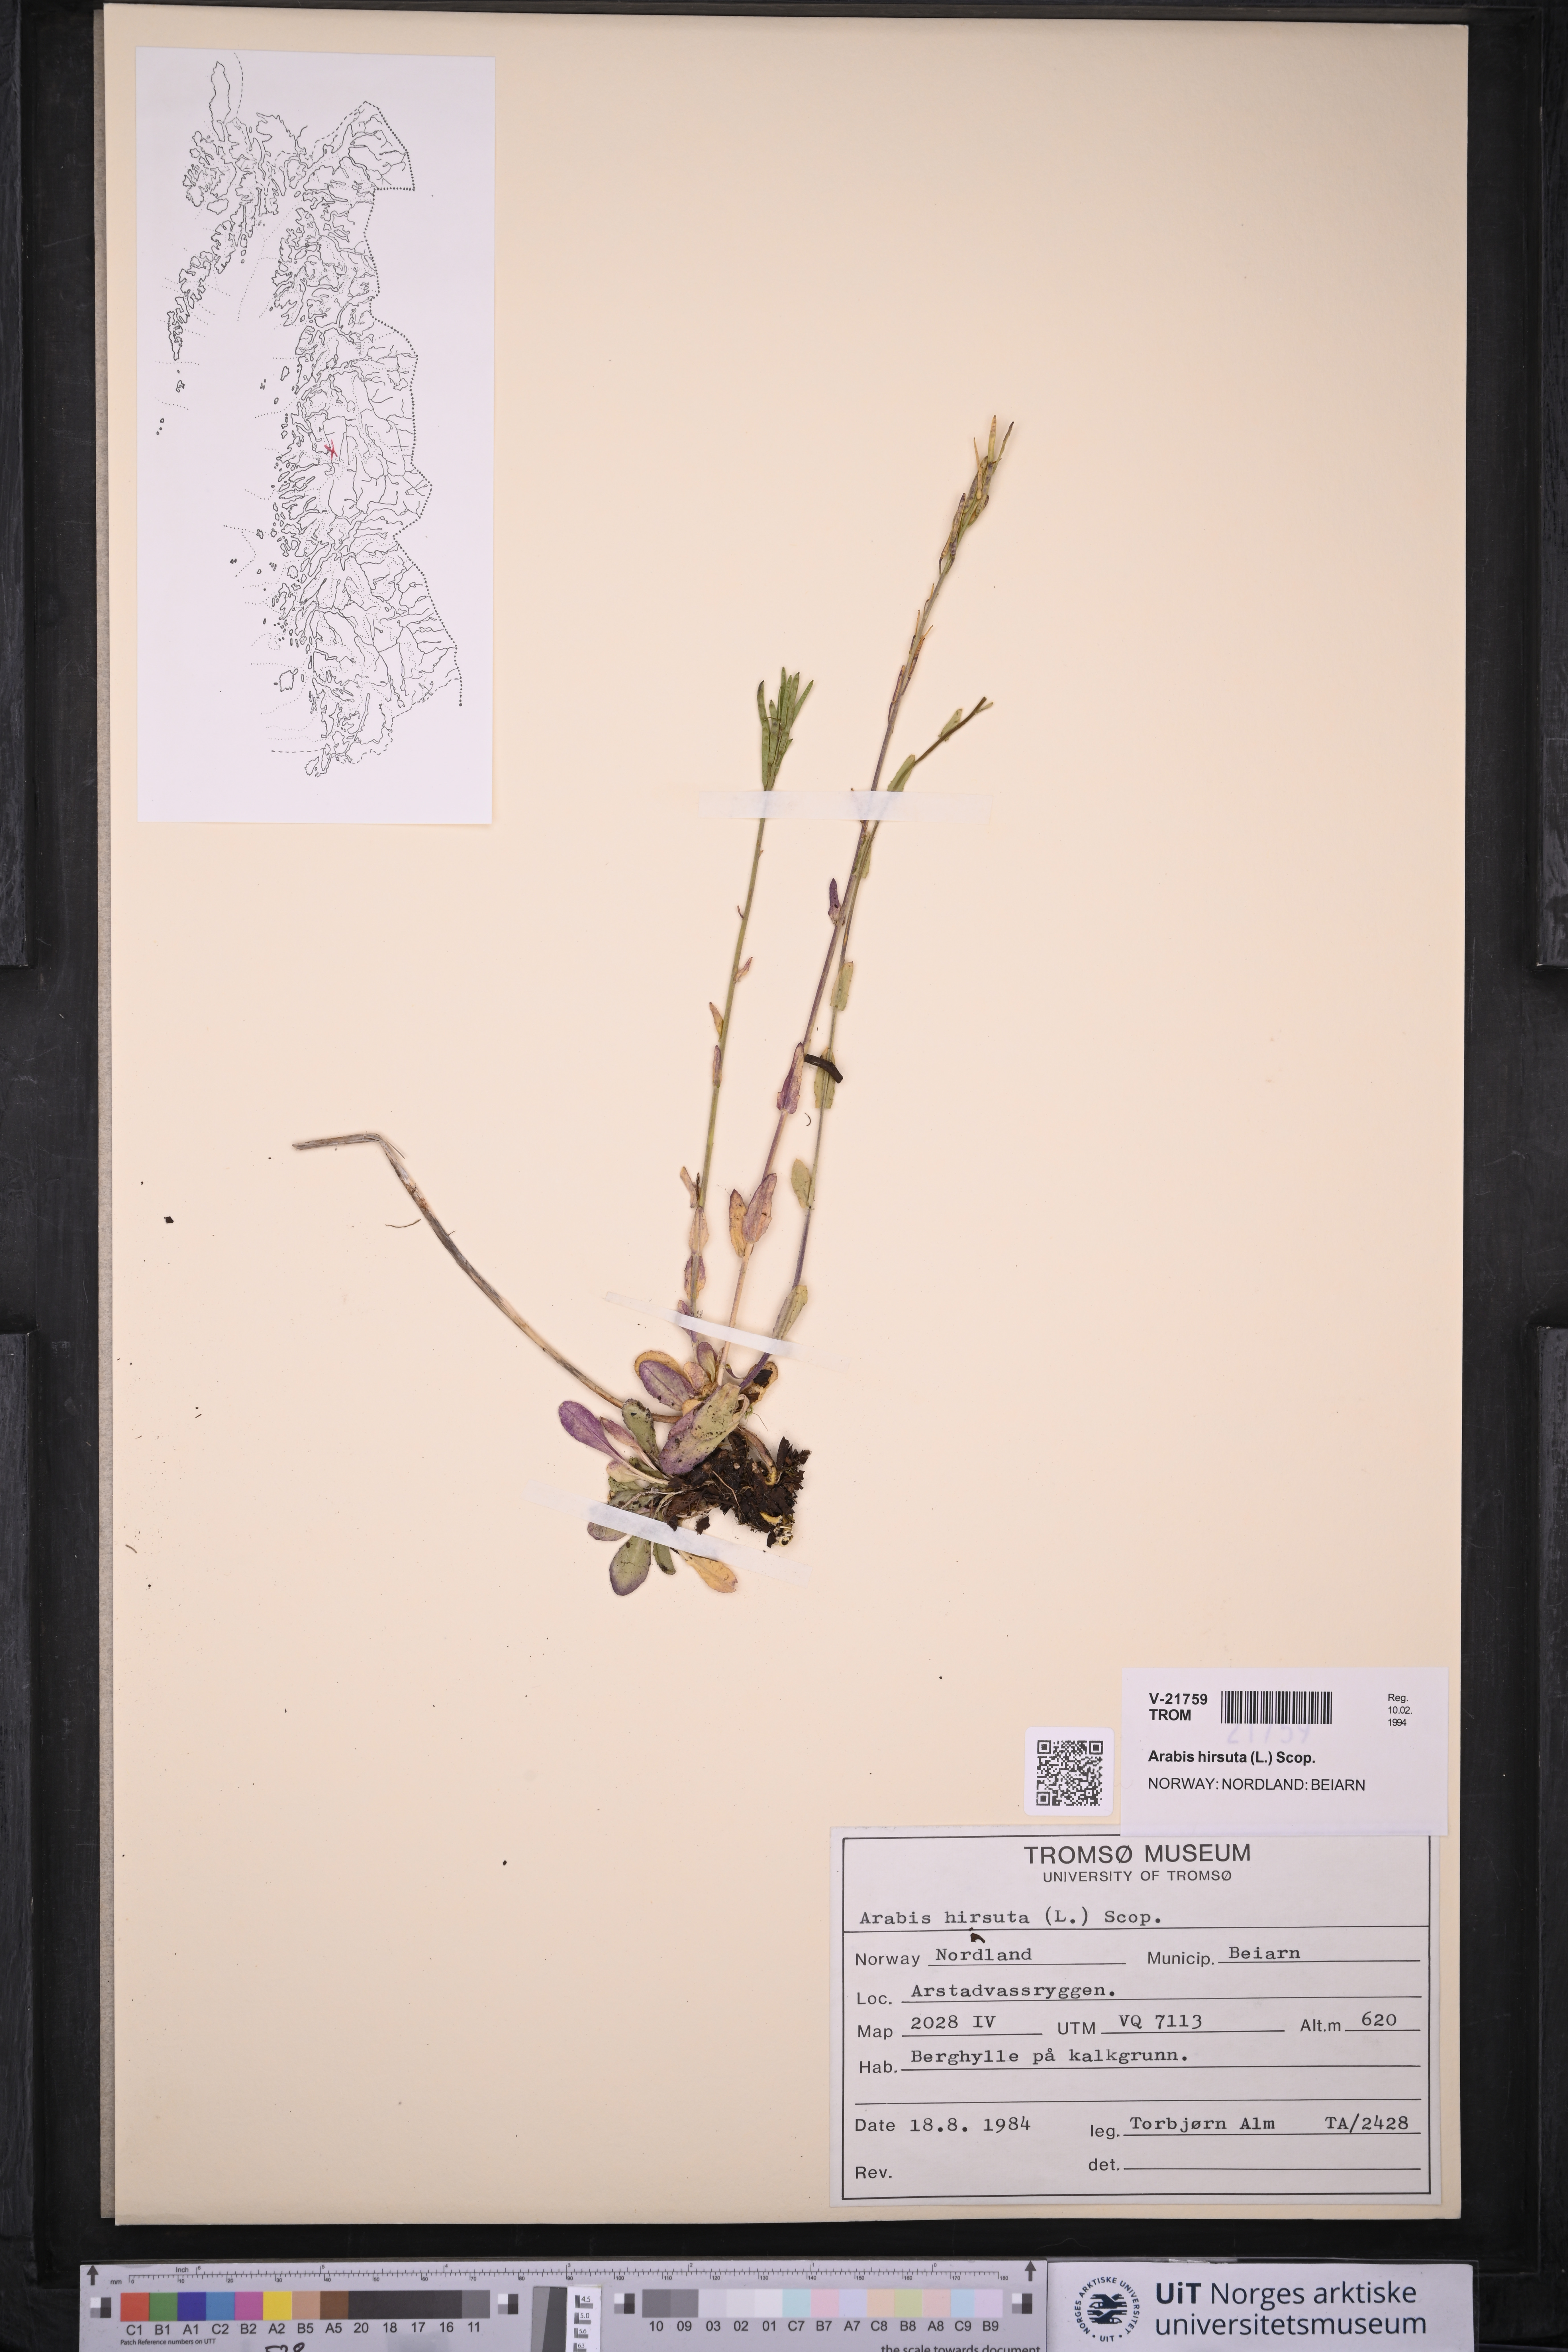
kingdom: Plantae
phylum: Tracheophyta
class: Magnoliopsida
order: Brassicales
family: Brassicaceae
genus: Arabis
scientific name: Arabis hirsuta
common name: Hairy rock-cress
